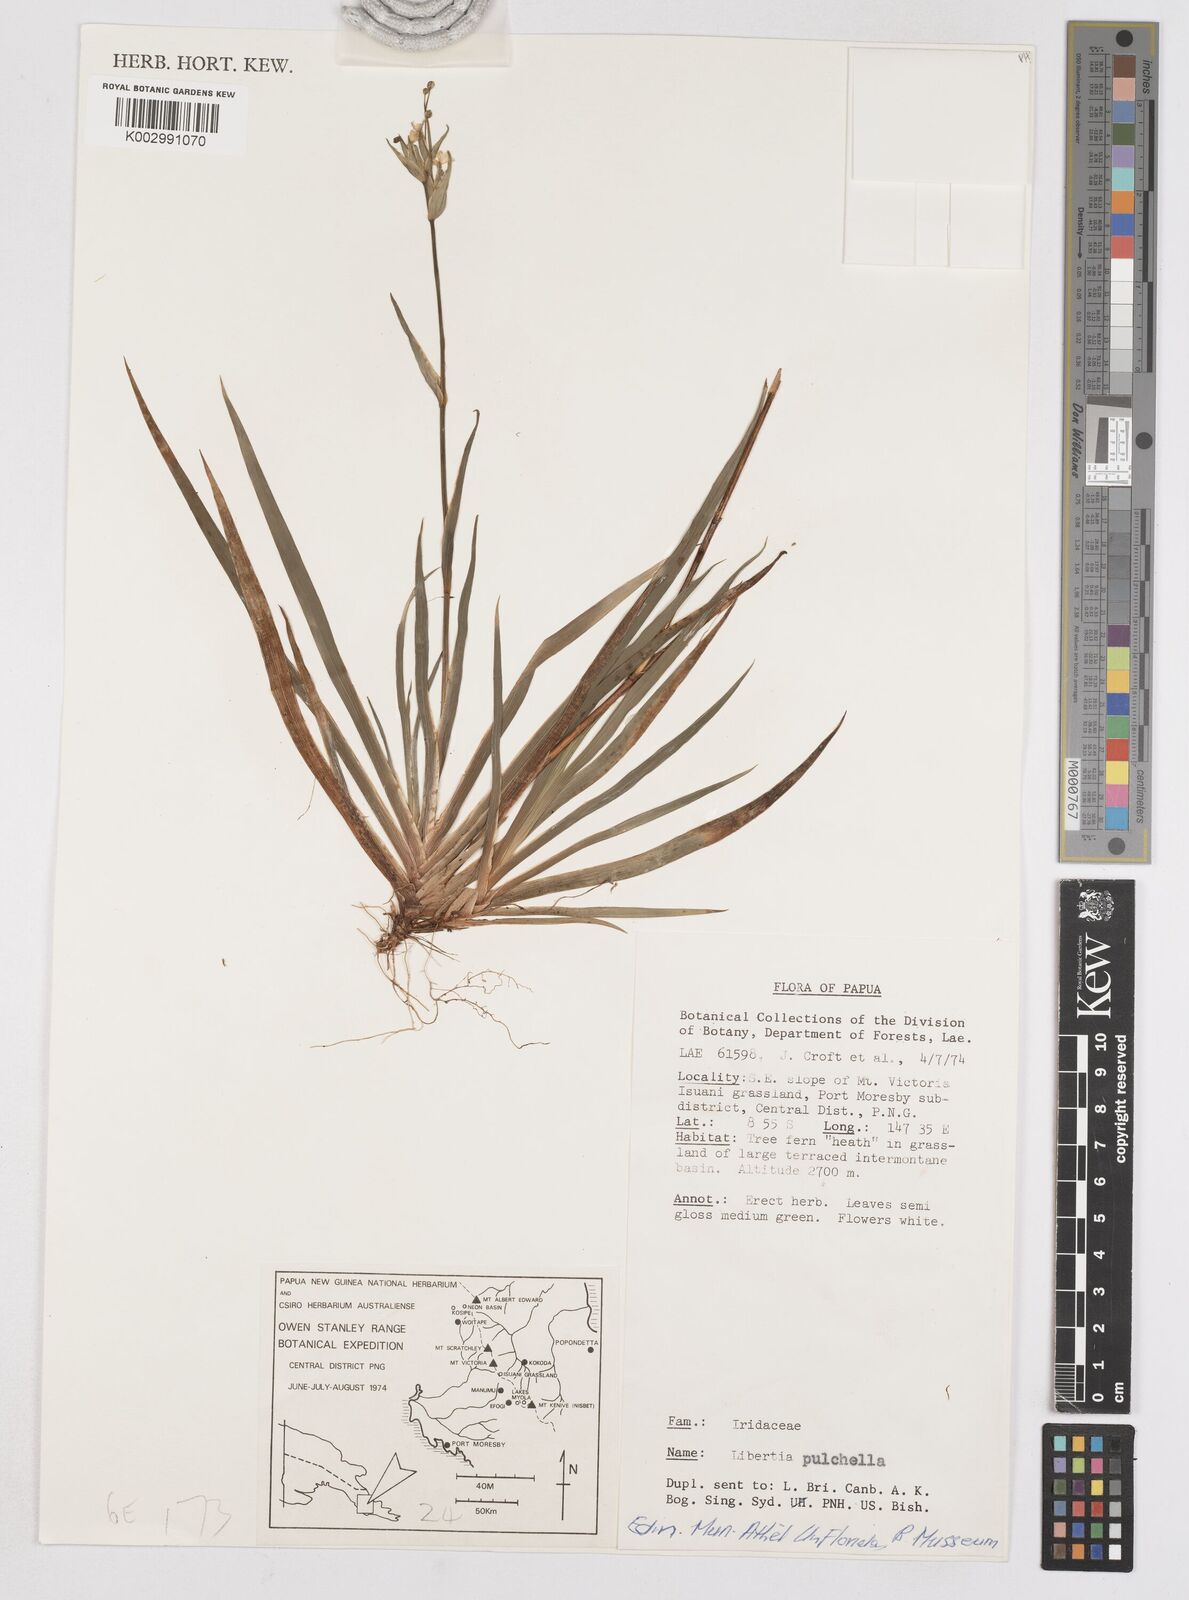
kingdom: Plantae
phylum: Tracheophyta
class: Liliopsida
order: Asparagales
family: Iridaceae
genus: Libertia
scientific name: Libertia pulchella
